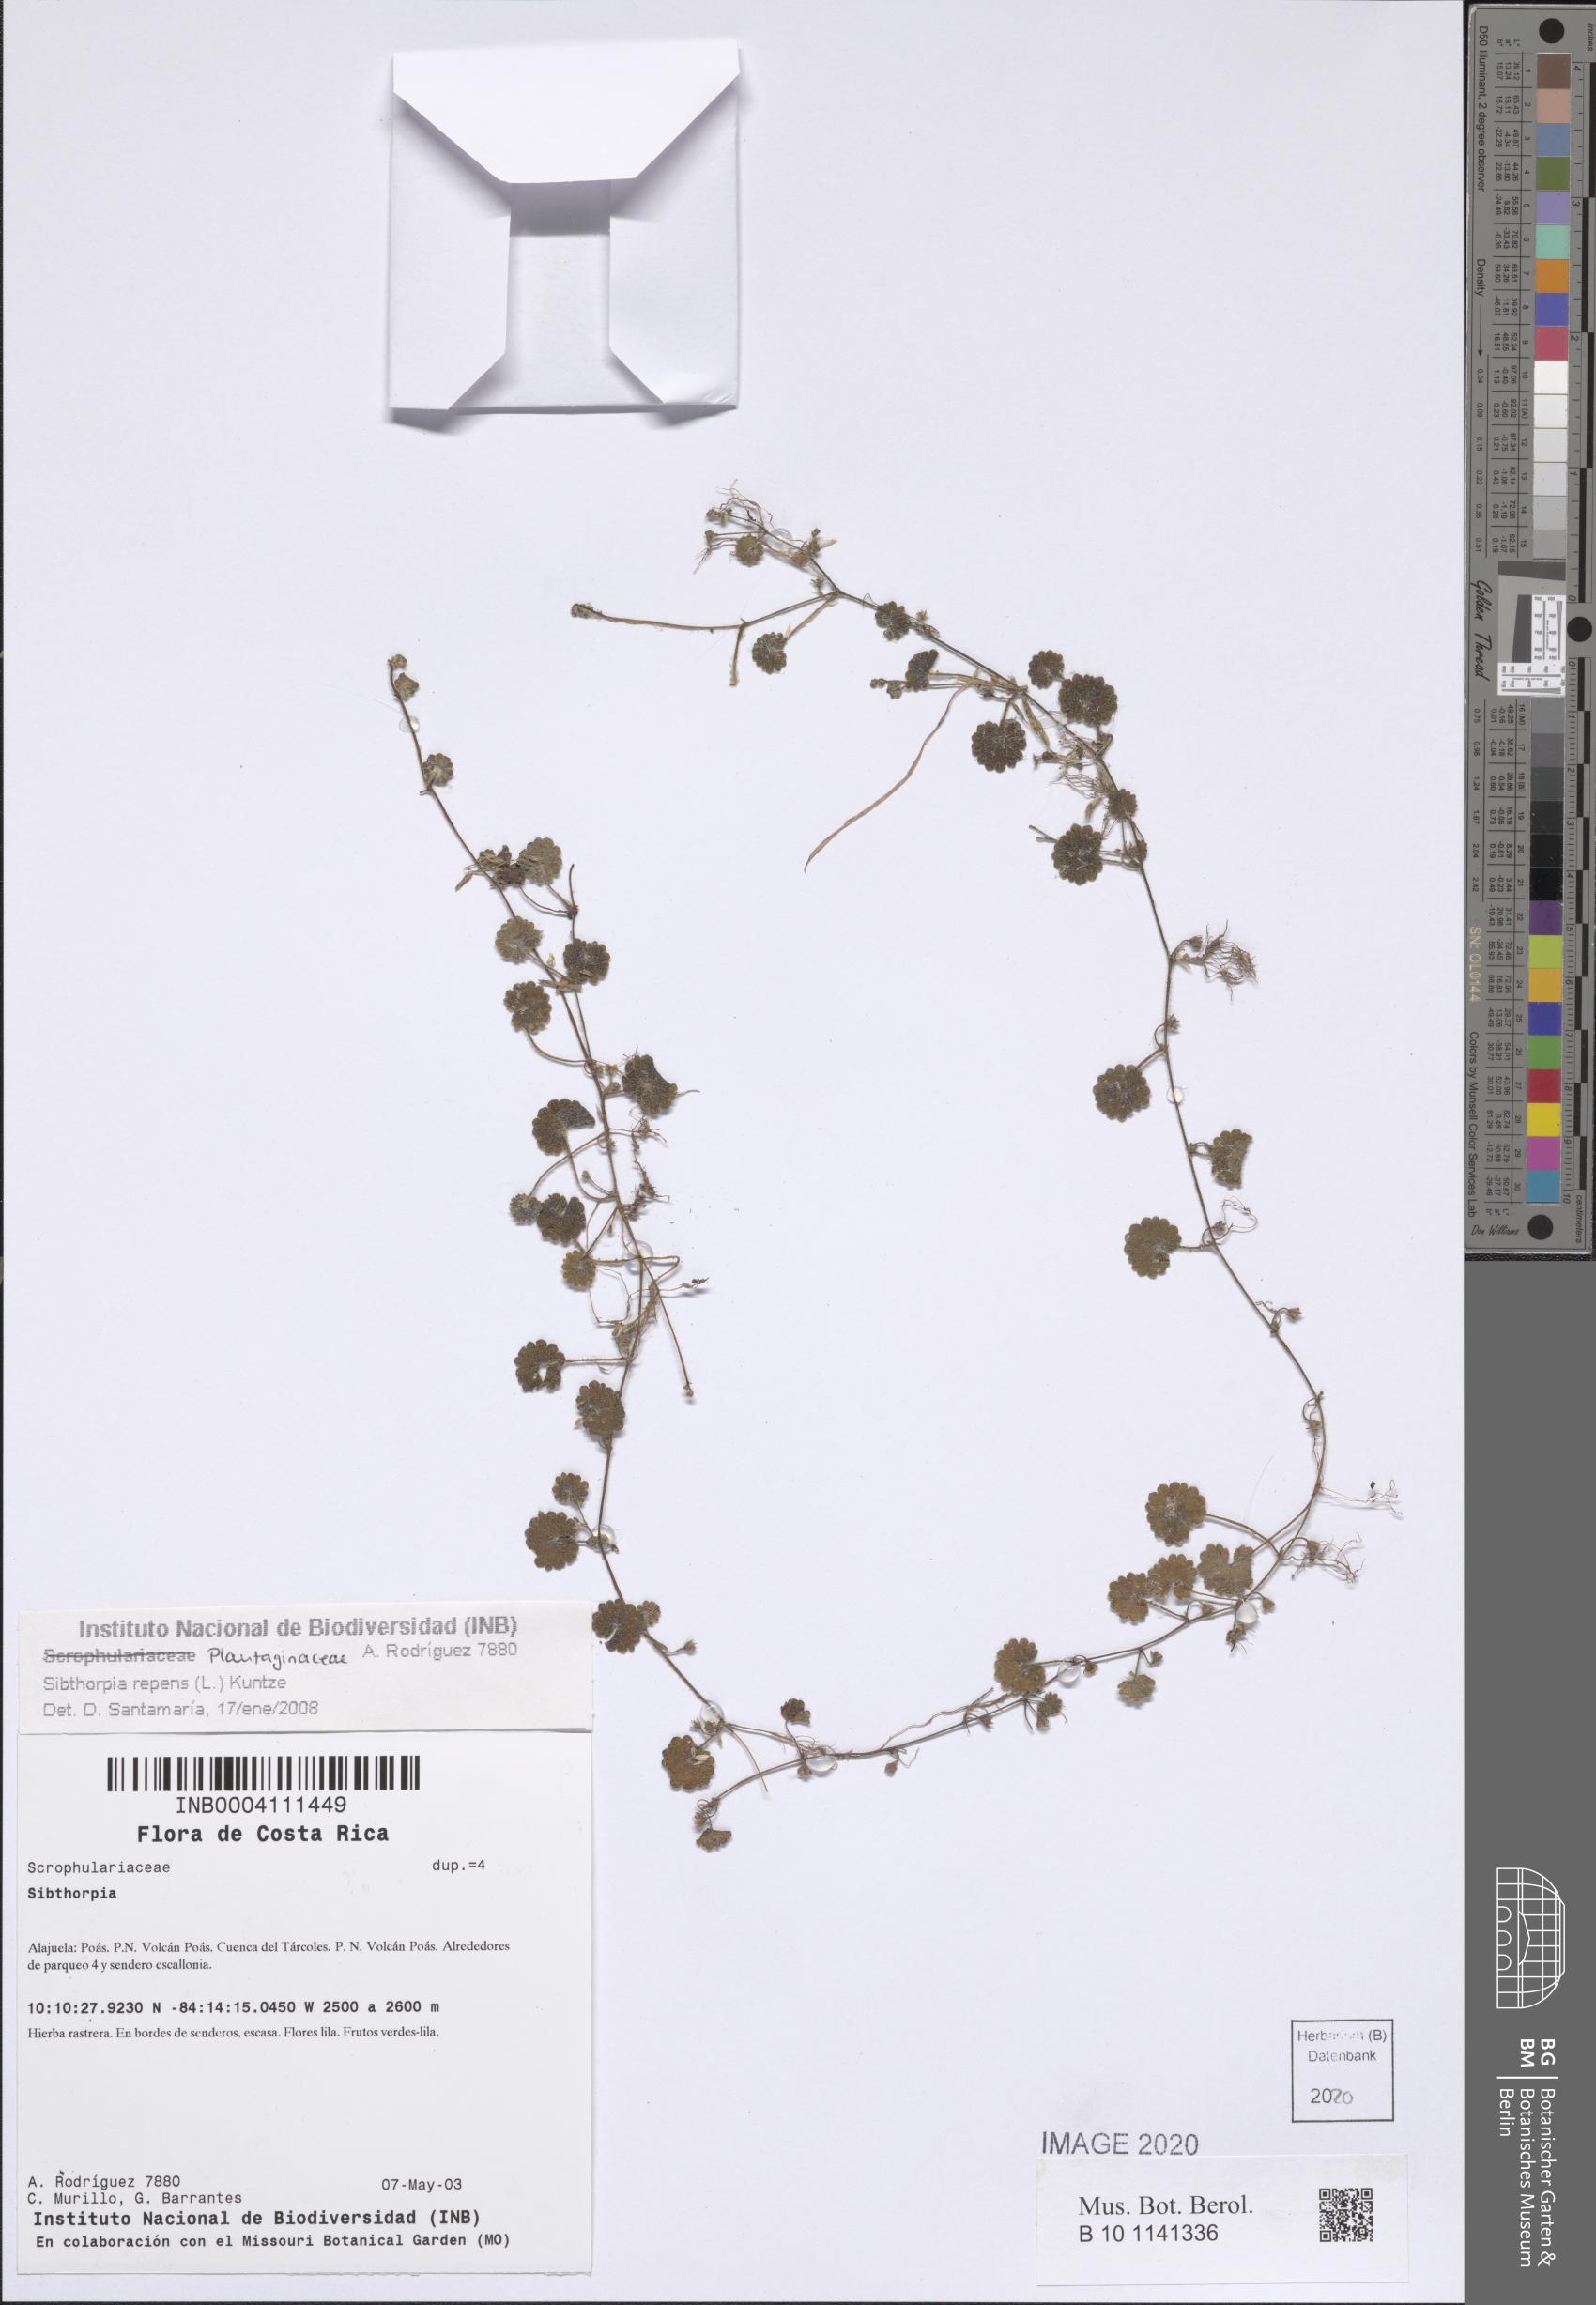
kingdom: Plantae
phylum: Tracheophyta
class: Magnoliopsida
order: Lamiales
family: Plantaginaceae
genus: Sibthorpia
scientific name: Sibthorpia repens
